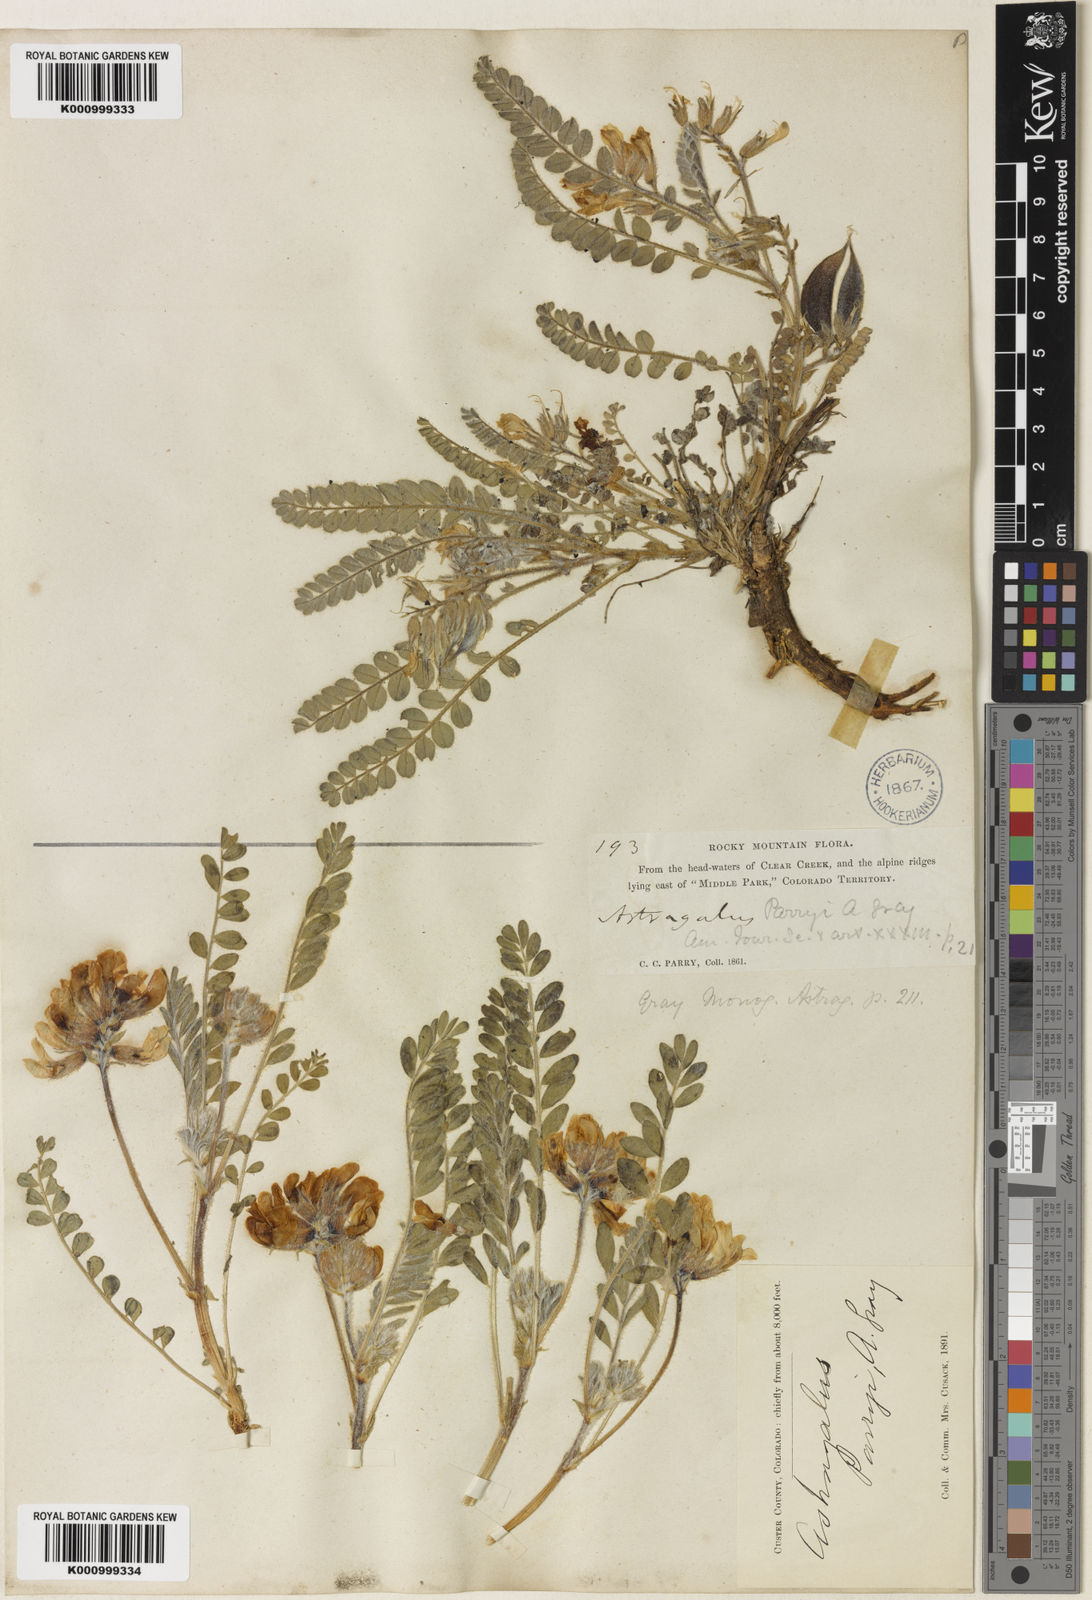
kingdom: Plantae
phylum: Tracheophyta
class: Magnoliopsida
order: Fabales
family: Fabaceae
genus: Astragalus
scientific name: Astragalus parryi
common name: Parry milk-vetch
